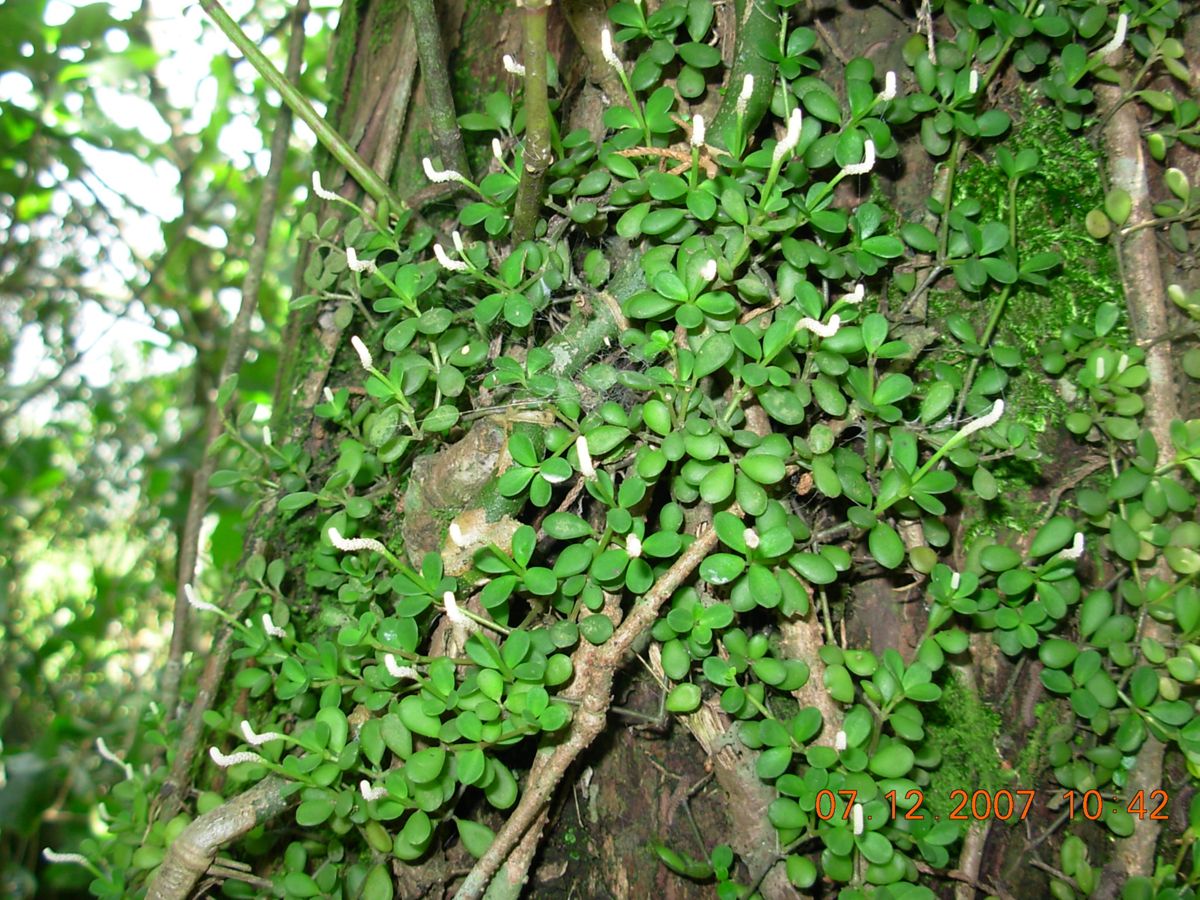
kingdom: Plantae
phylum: Tracheophyta
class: Magnoliopsida
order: Piperales
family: Piperaceae
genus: Peperomia
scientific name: Peperomia tenerrima
